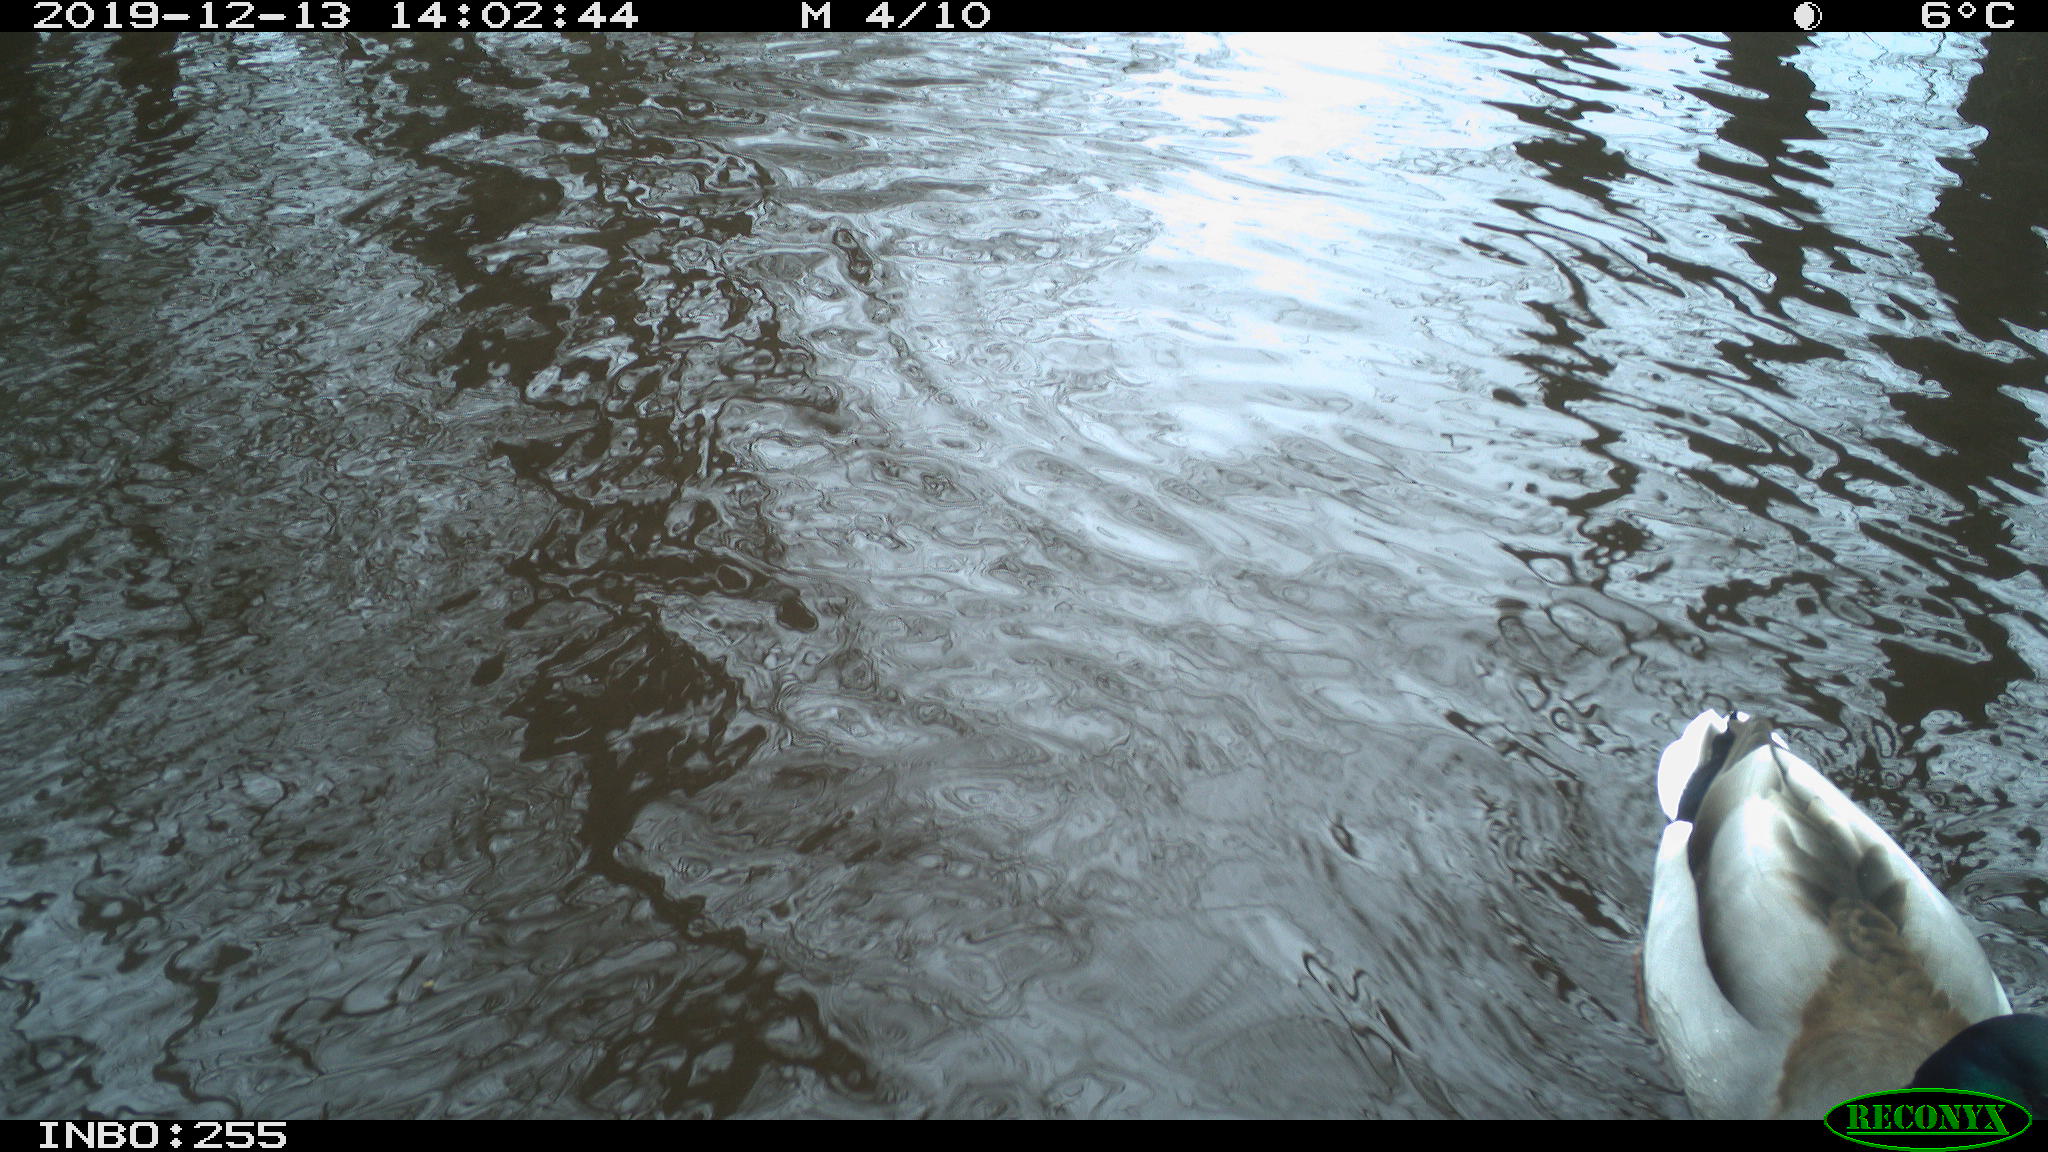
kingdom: Animalia
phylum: Chordata
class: Aves
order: Anseriformes
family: Anatidae
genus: Anas
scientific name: Anas platyrhynchos
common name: Mallard
